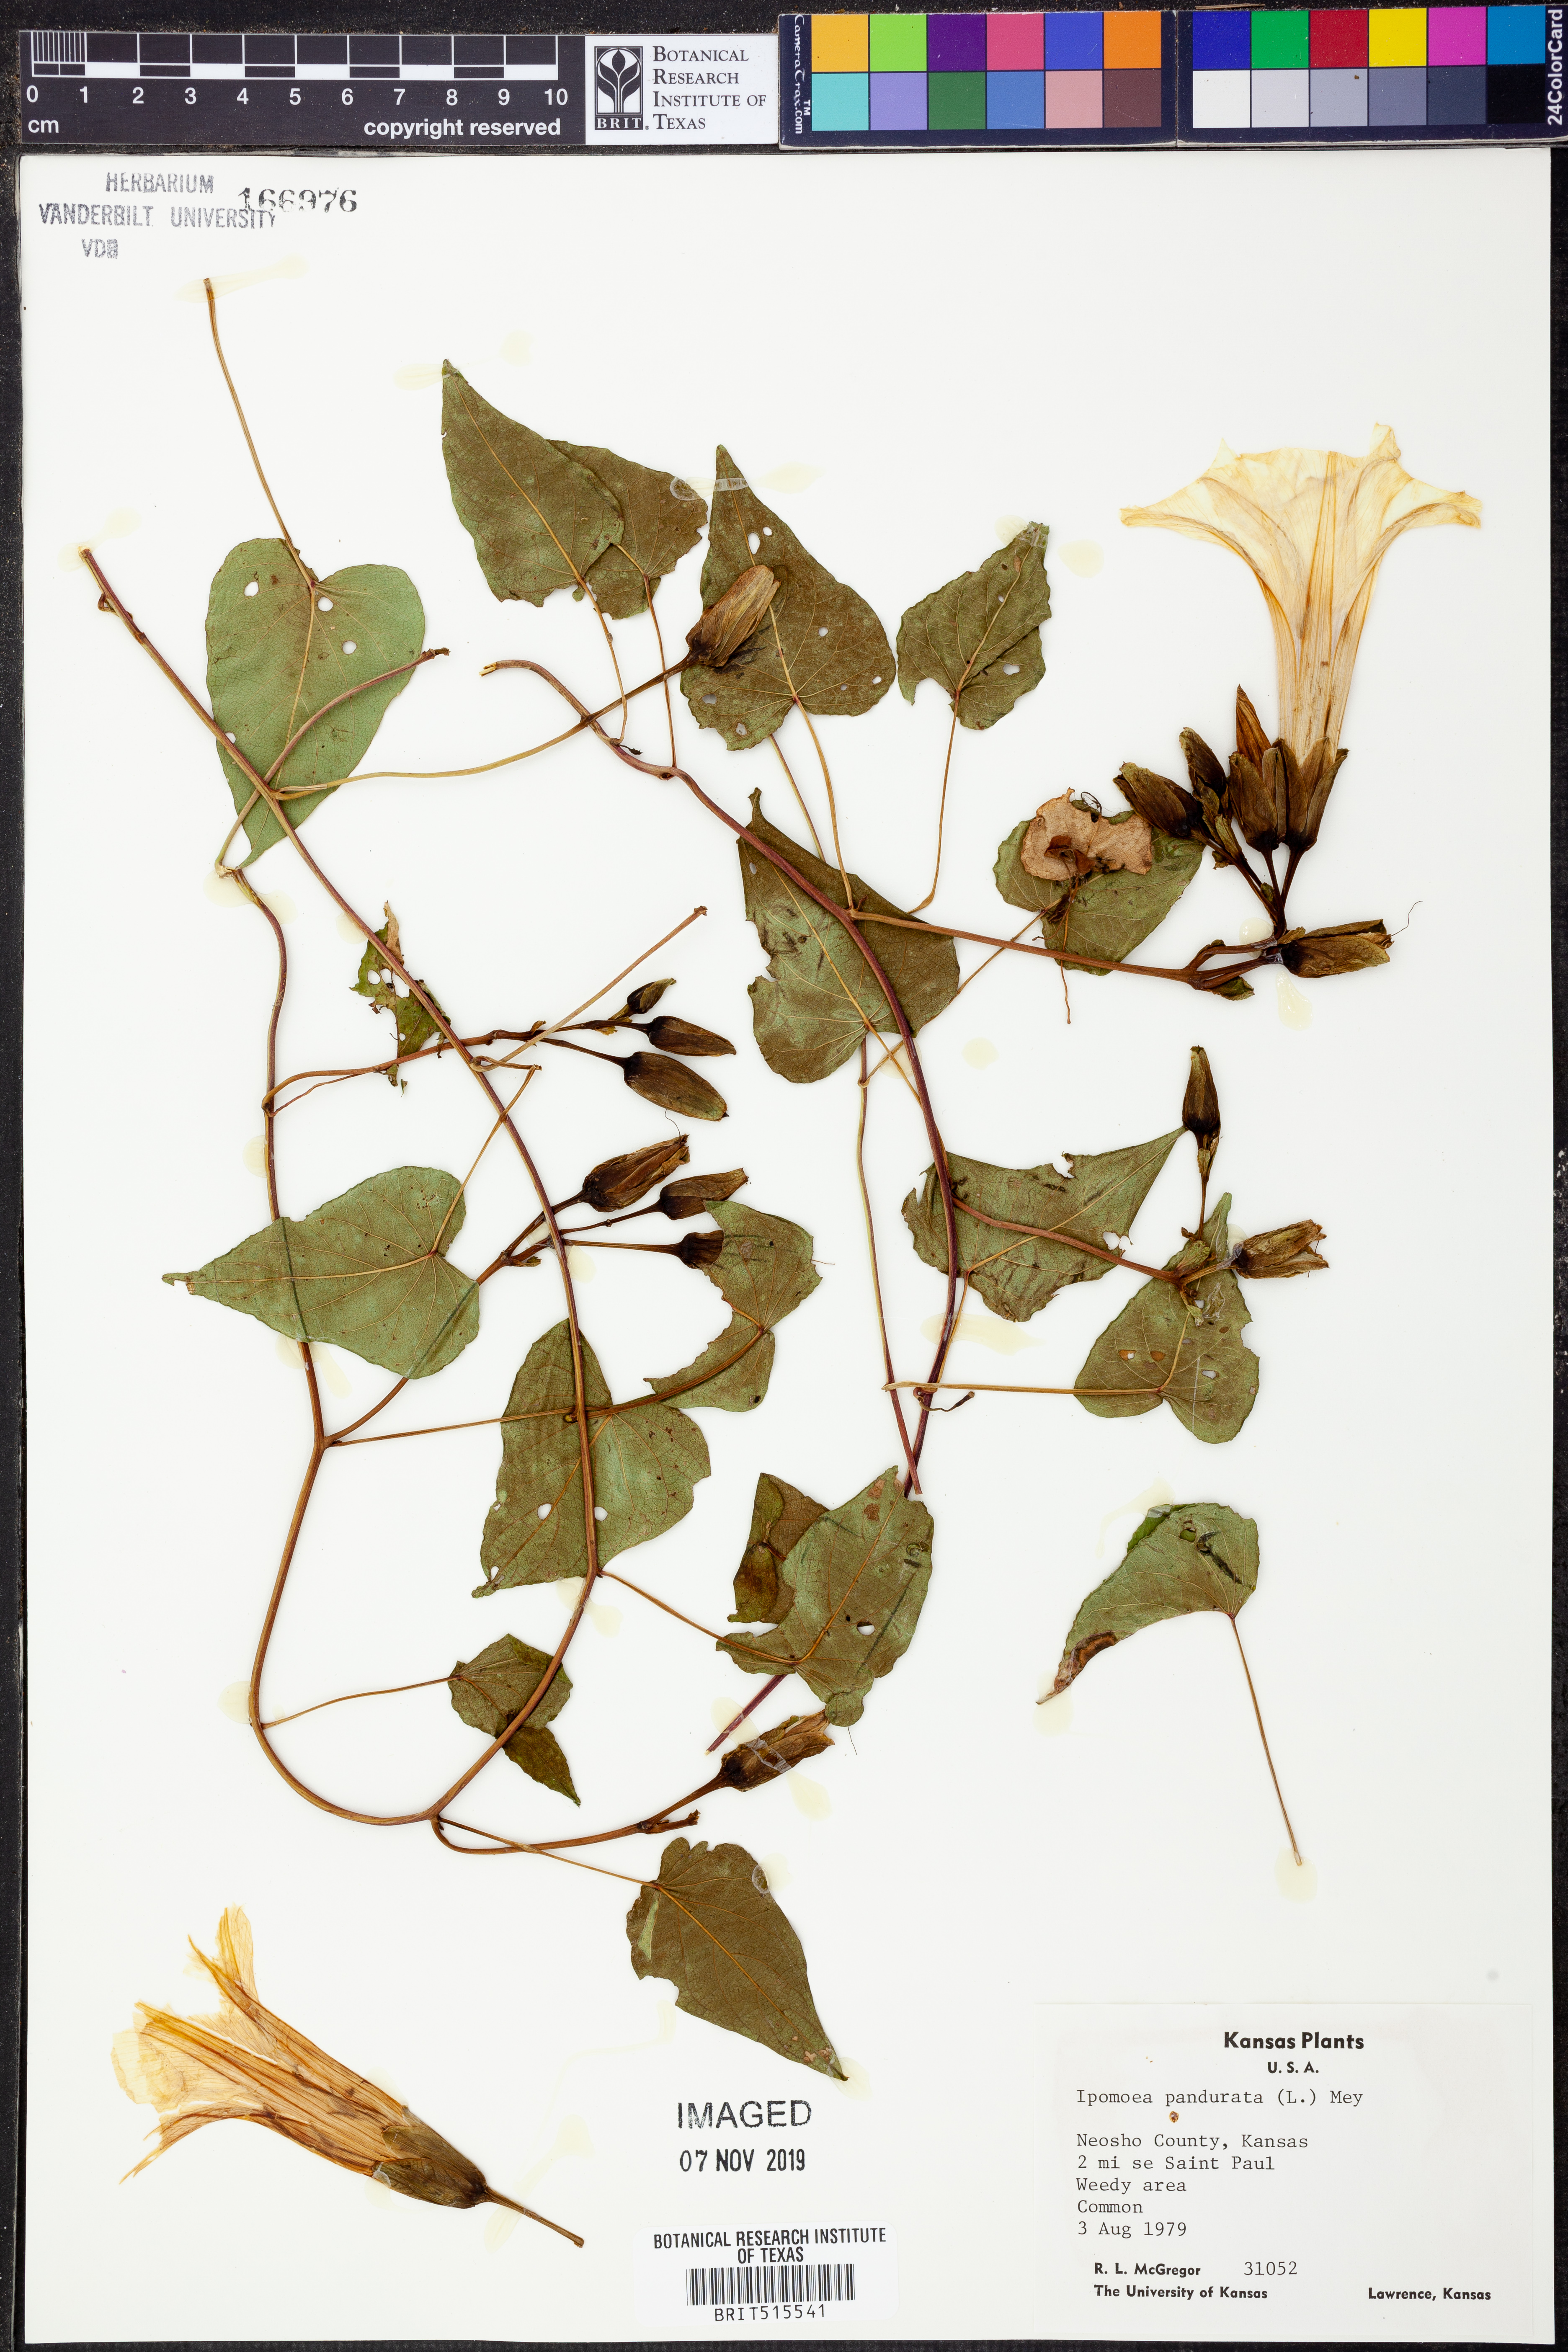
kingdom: Plantae
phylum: Tracheophyta
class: Magnoliopsida
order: Solanales
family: Convolvulaceae
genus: Ipomoea
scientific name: Ipomoea pandurata
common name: Man-of-the-earth
